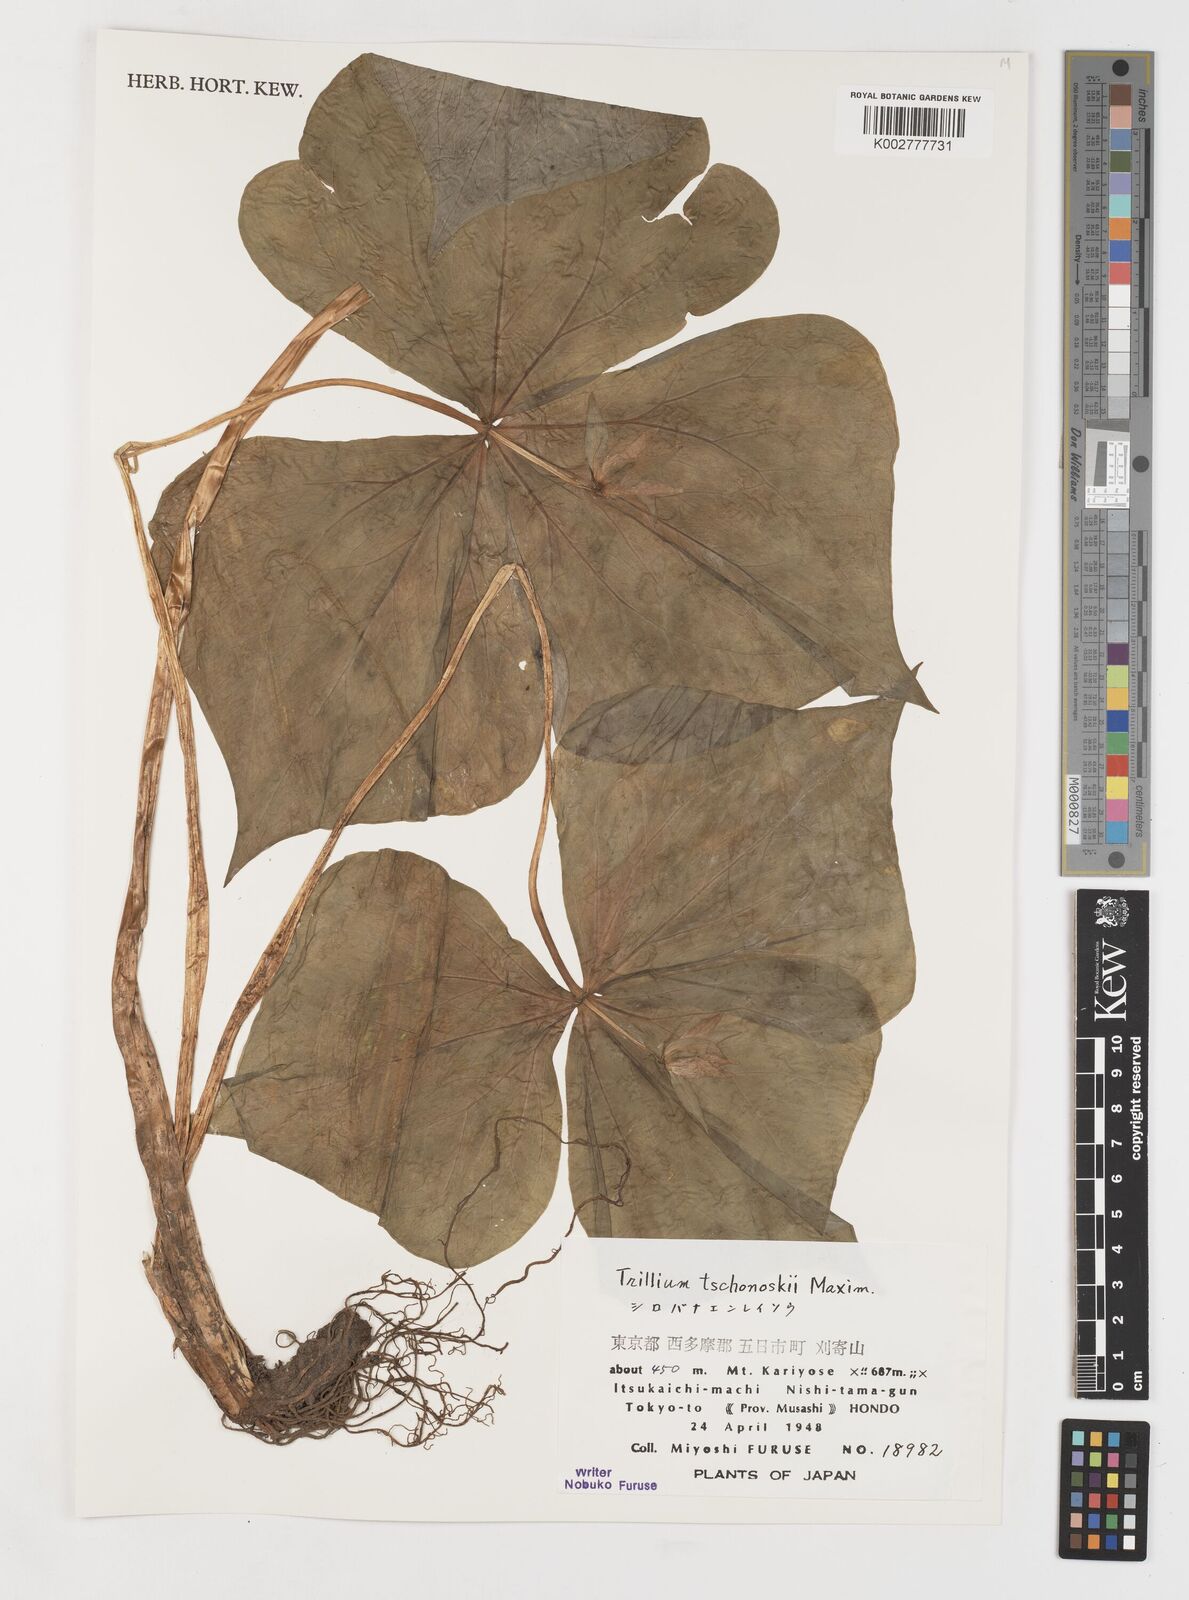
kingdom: Plantae
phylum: Tracheophyta
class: Liliopsida
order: Liliales
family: Melanthiaceae
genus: Trillium
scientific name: Trillium tschonoskii
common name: A pearl on head
